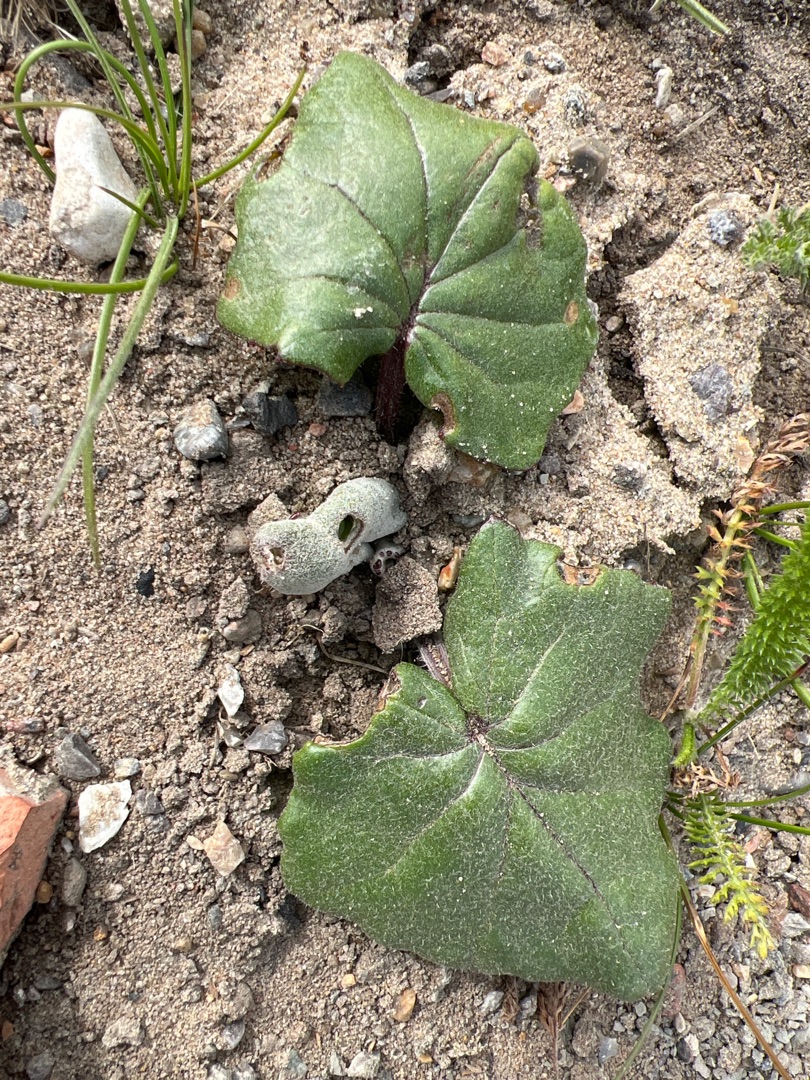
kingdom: Plantae
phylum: Tracheophyta
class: Magnoliopsida
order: Asterales
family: Asteraceae
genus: Tussilago
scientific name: Tussilago farfara
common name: Følfod
